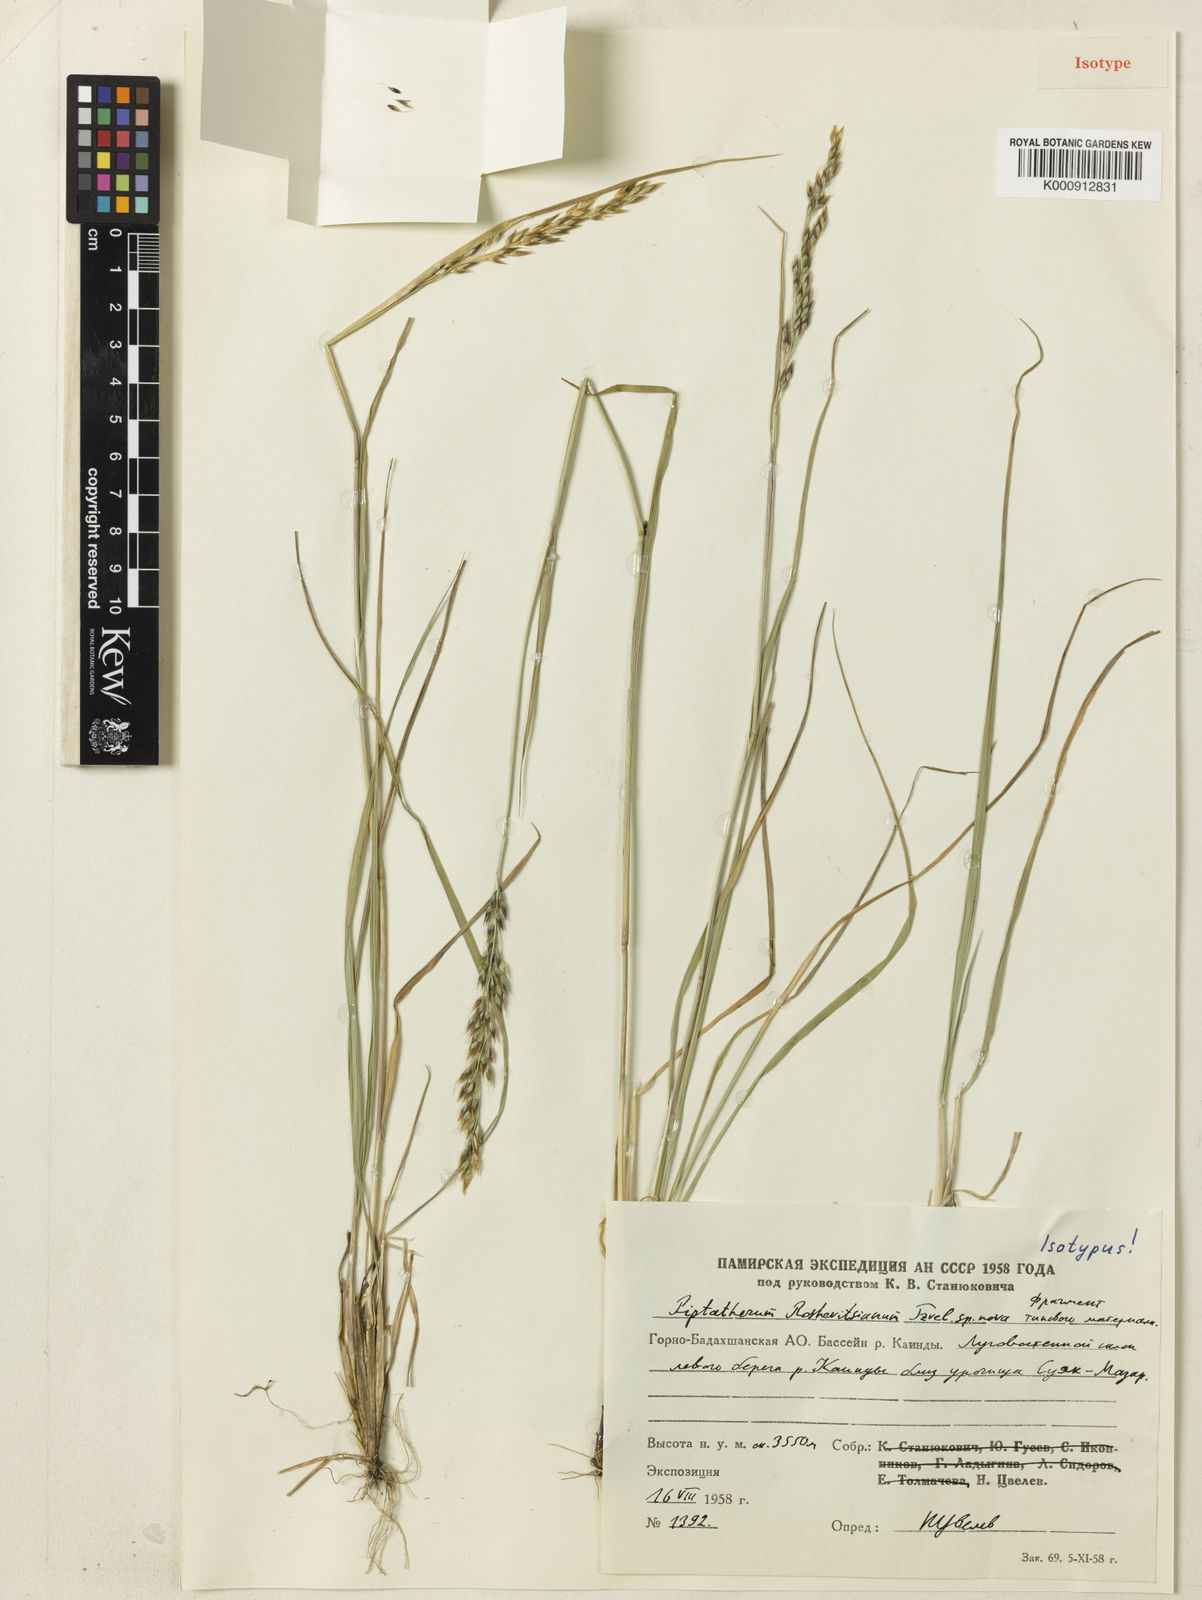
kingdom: Plantae
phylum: Tracheophyta
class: Liliopsida
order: Poales
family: Poaceae
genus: Piptatherum
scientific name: Piptatherum roshevitsianum
